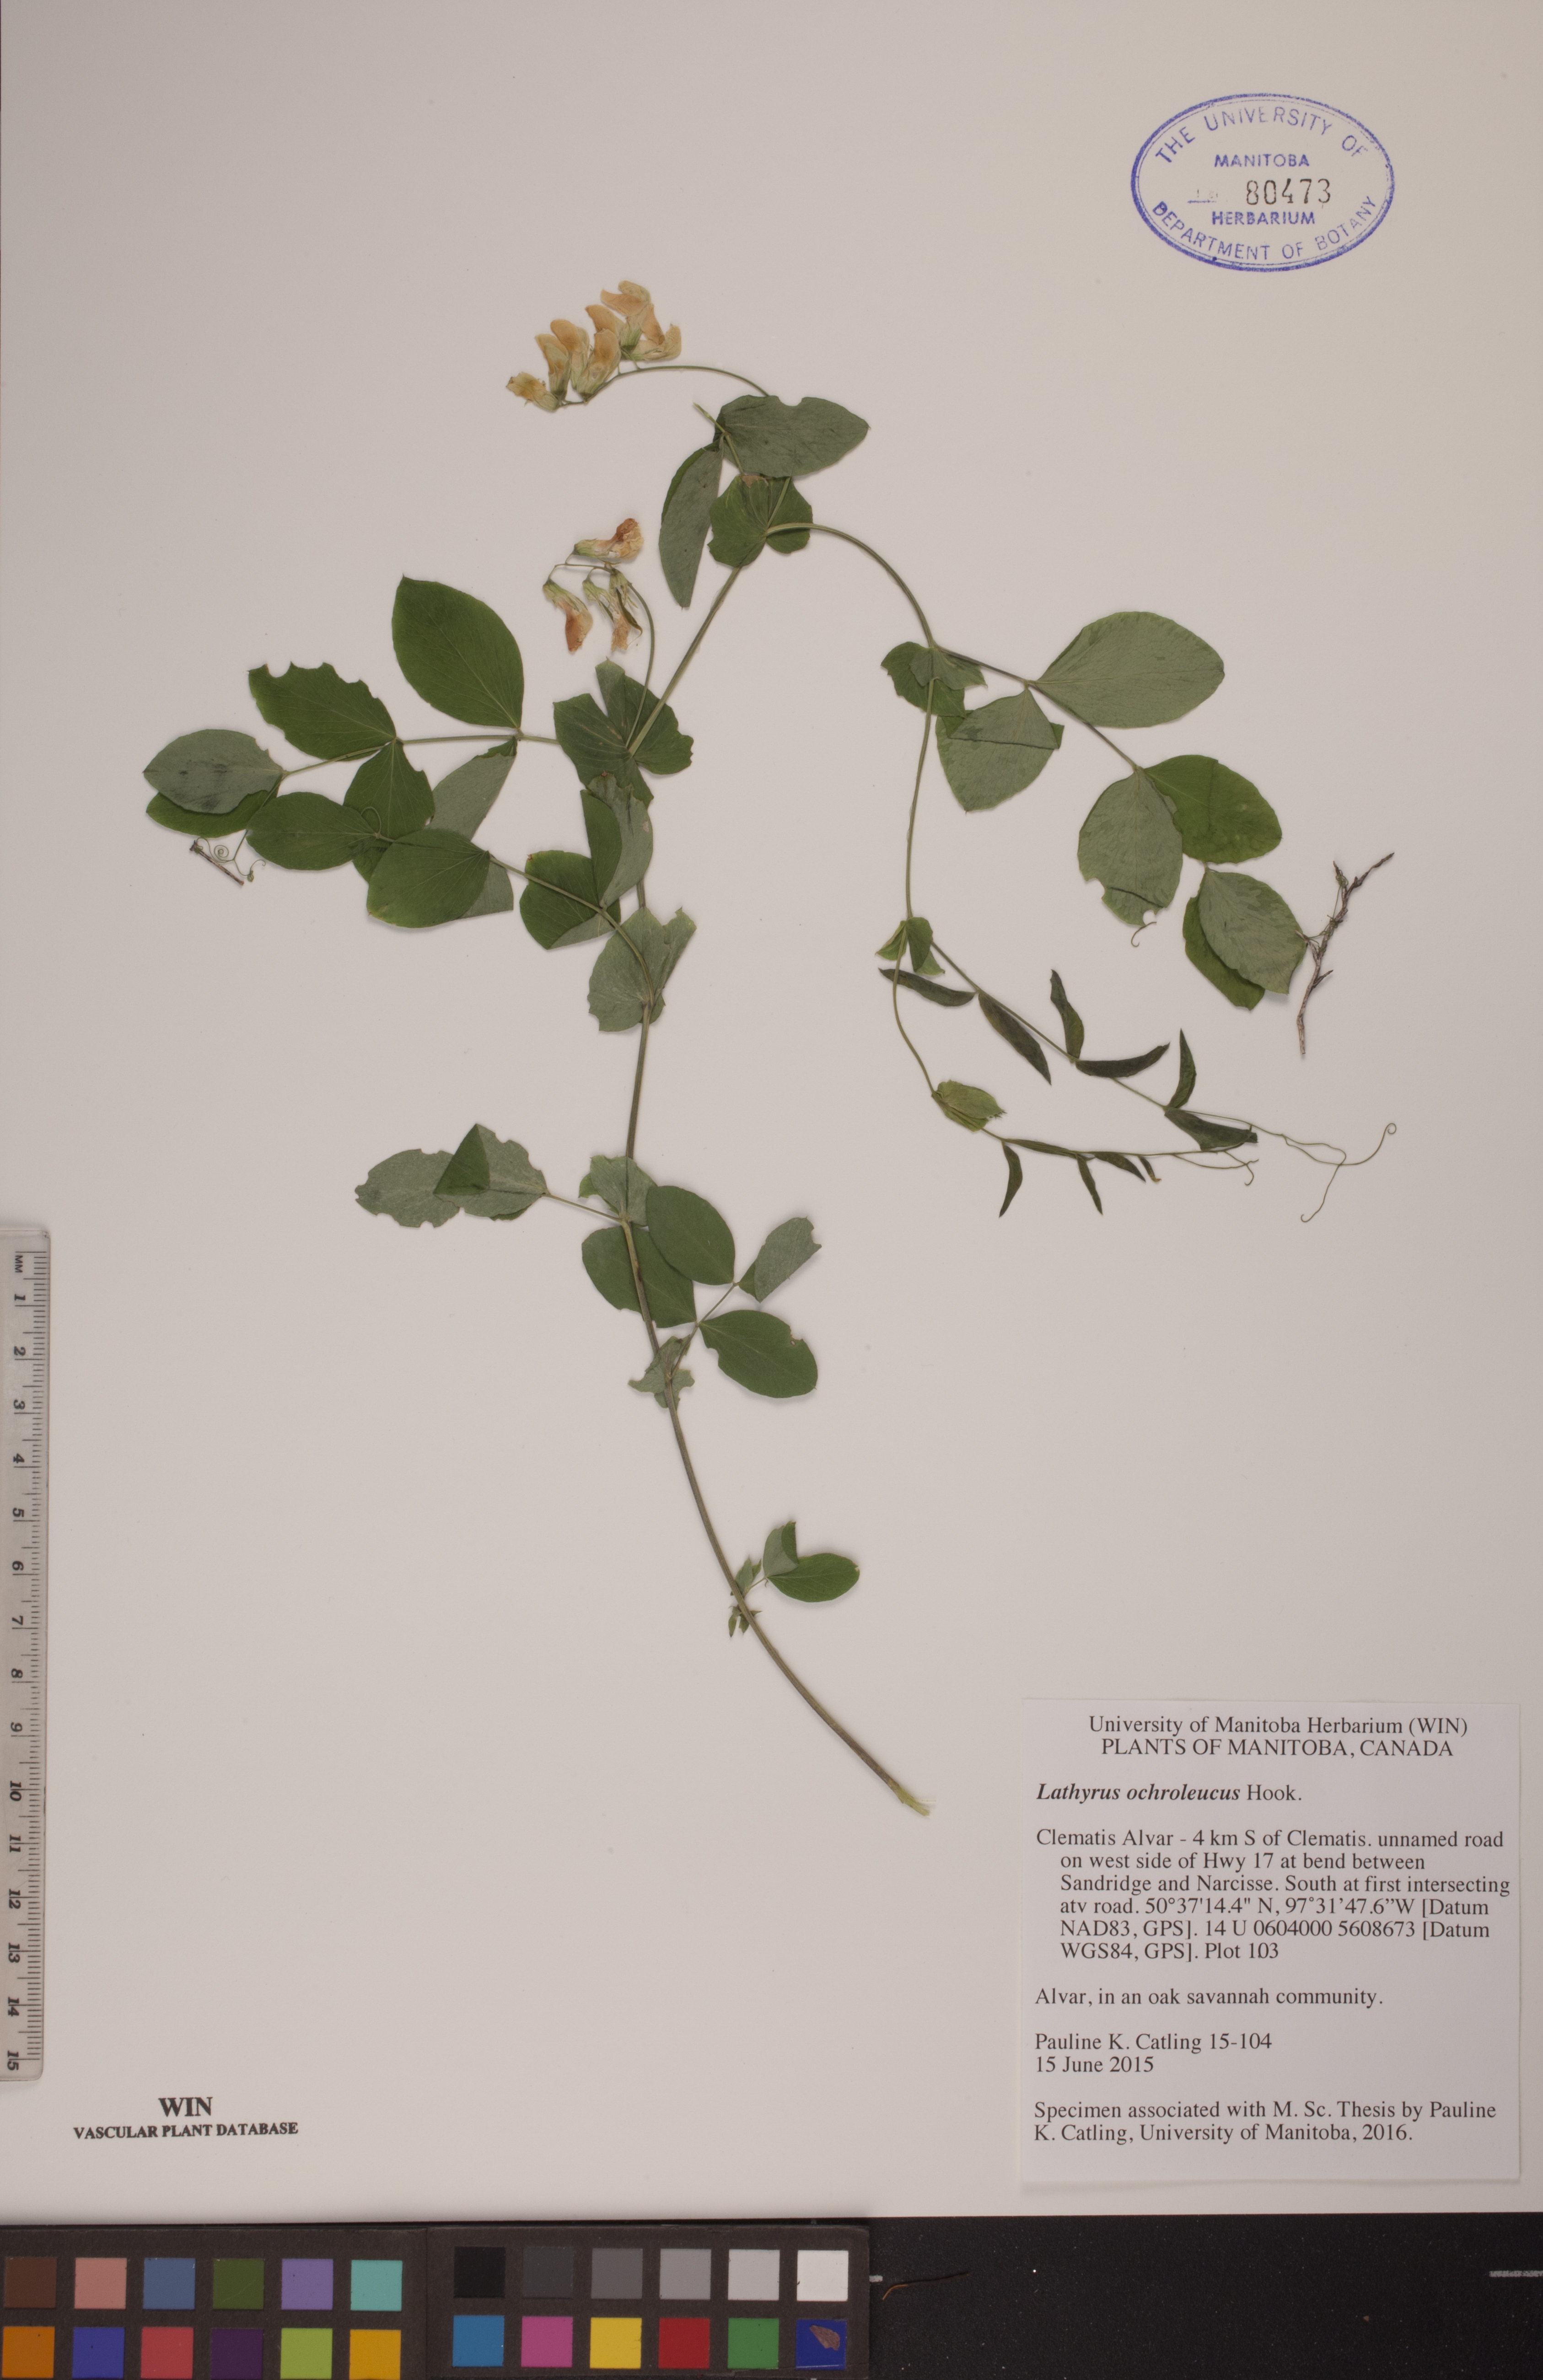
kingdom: Plantae
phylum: Tracheophyta
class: Magnoliopsida
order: Fabales
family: Fabaceae
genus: Lathyrus
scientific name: Lathyrus ochroleucus
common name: Pale vetchling
